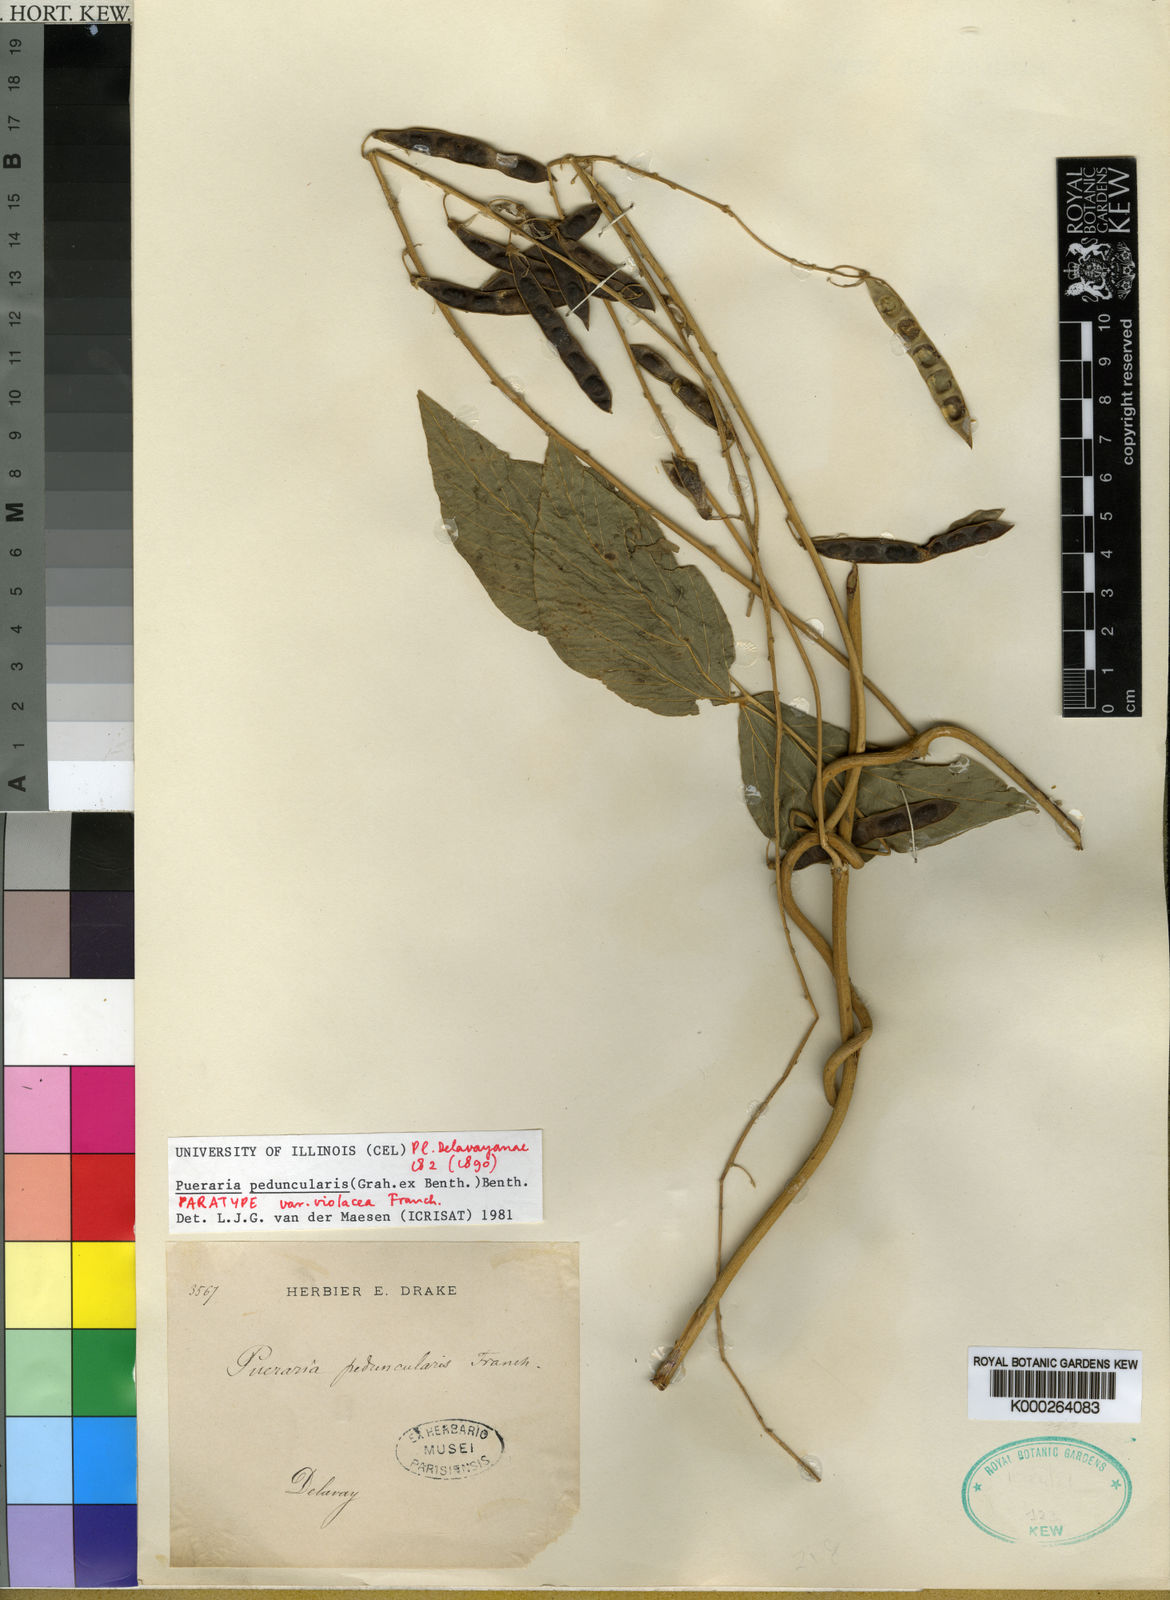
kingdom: Plantae
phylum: Tracheophyta
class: Magnoliopsida
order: Fabales
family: Fabaceae
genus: Toxicopueraria
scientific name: Toxicopueraria peduncularis
